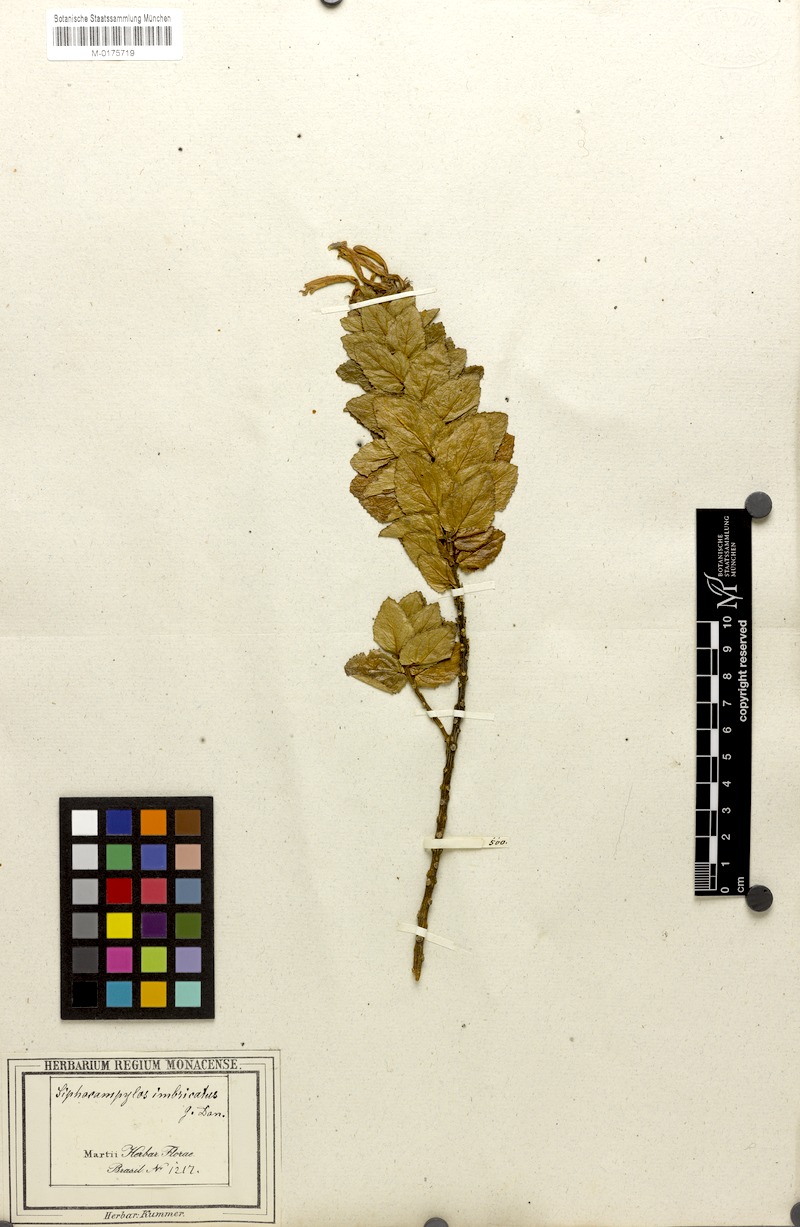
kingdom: Plantae
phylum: Tracheophyta
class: Magnoliopsida
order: Apiales
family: Apiaceae
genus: Alepidea
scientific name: Alepidea capensis
